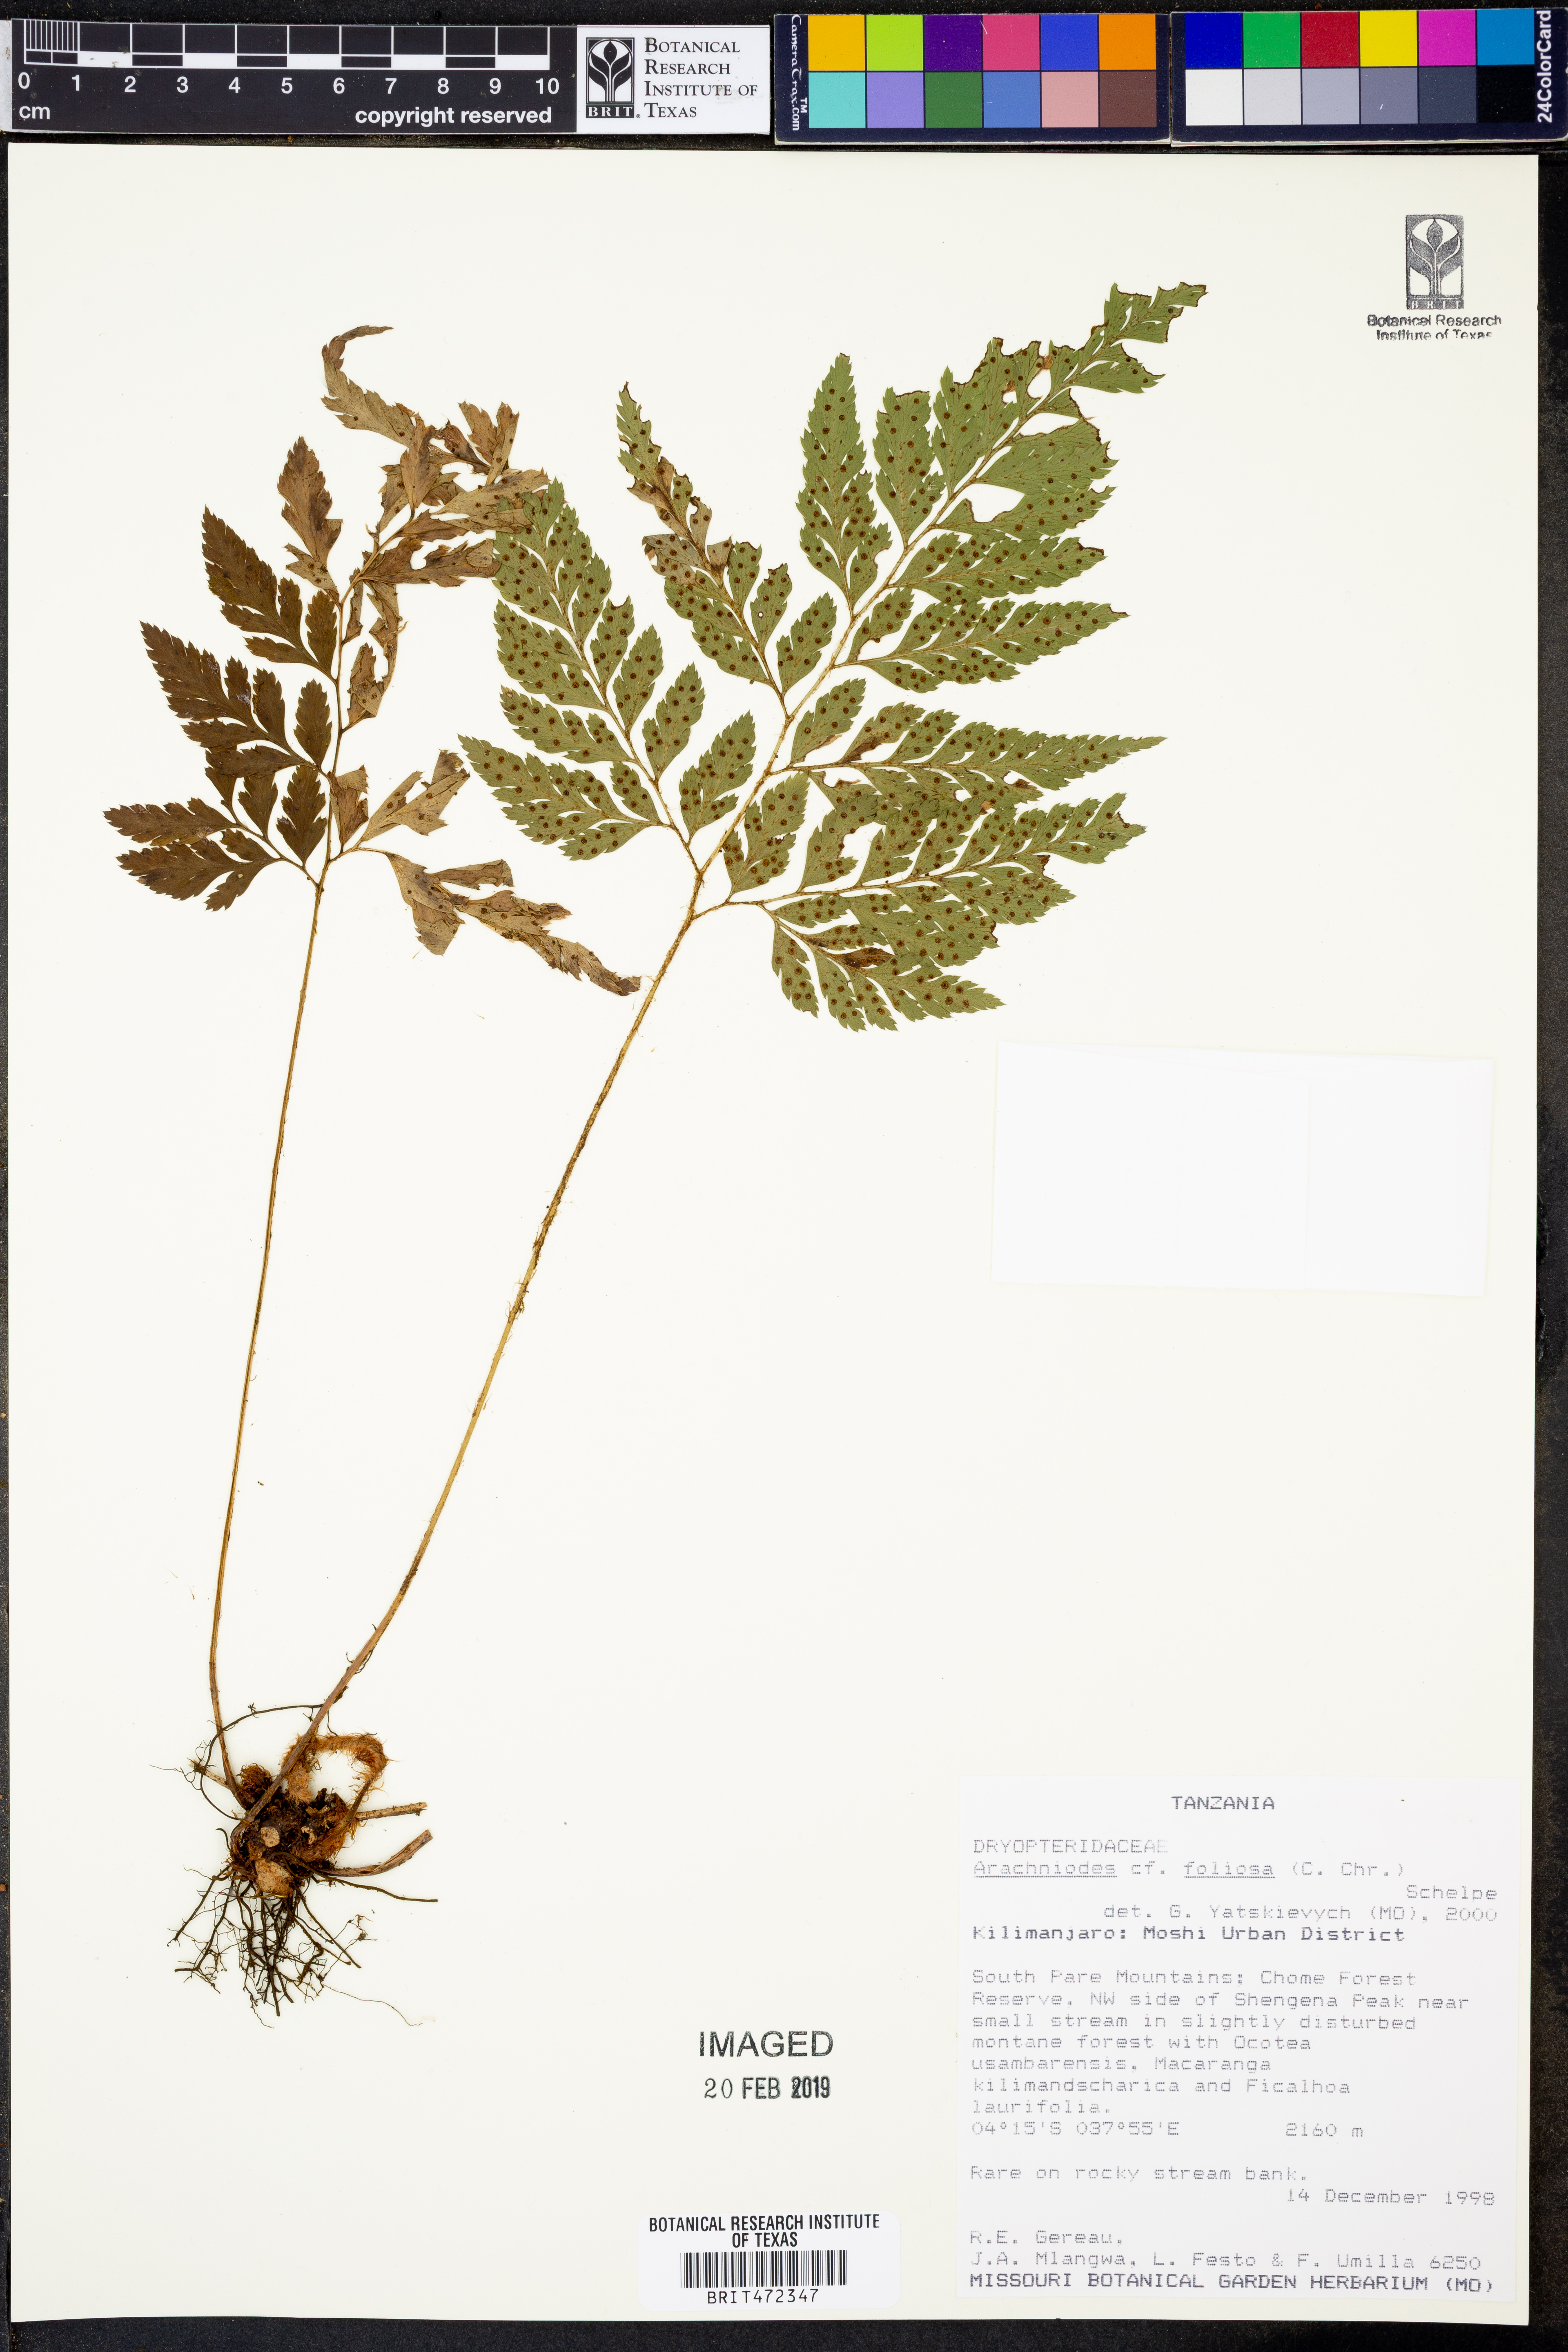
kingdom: Plantae
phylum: Tracheophyta
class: Polypodiopsida
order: Polypodiales
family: Dryopteridaceae
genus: Arachniodes
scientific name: Arachniodes
